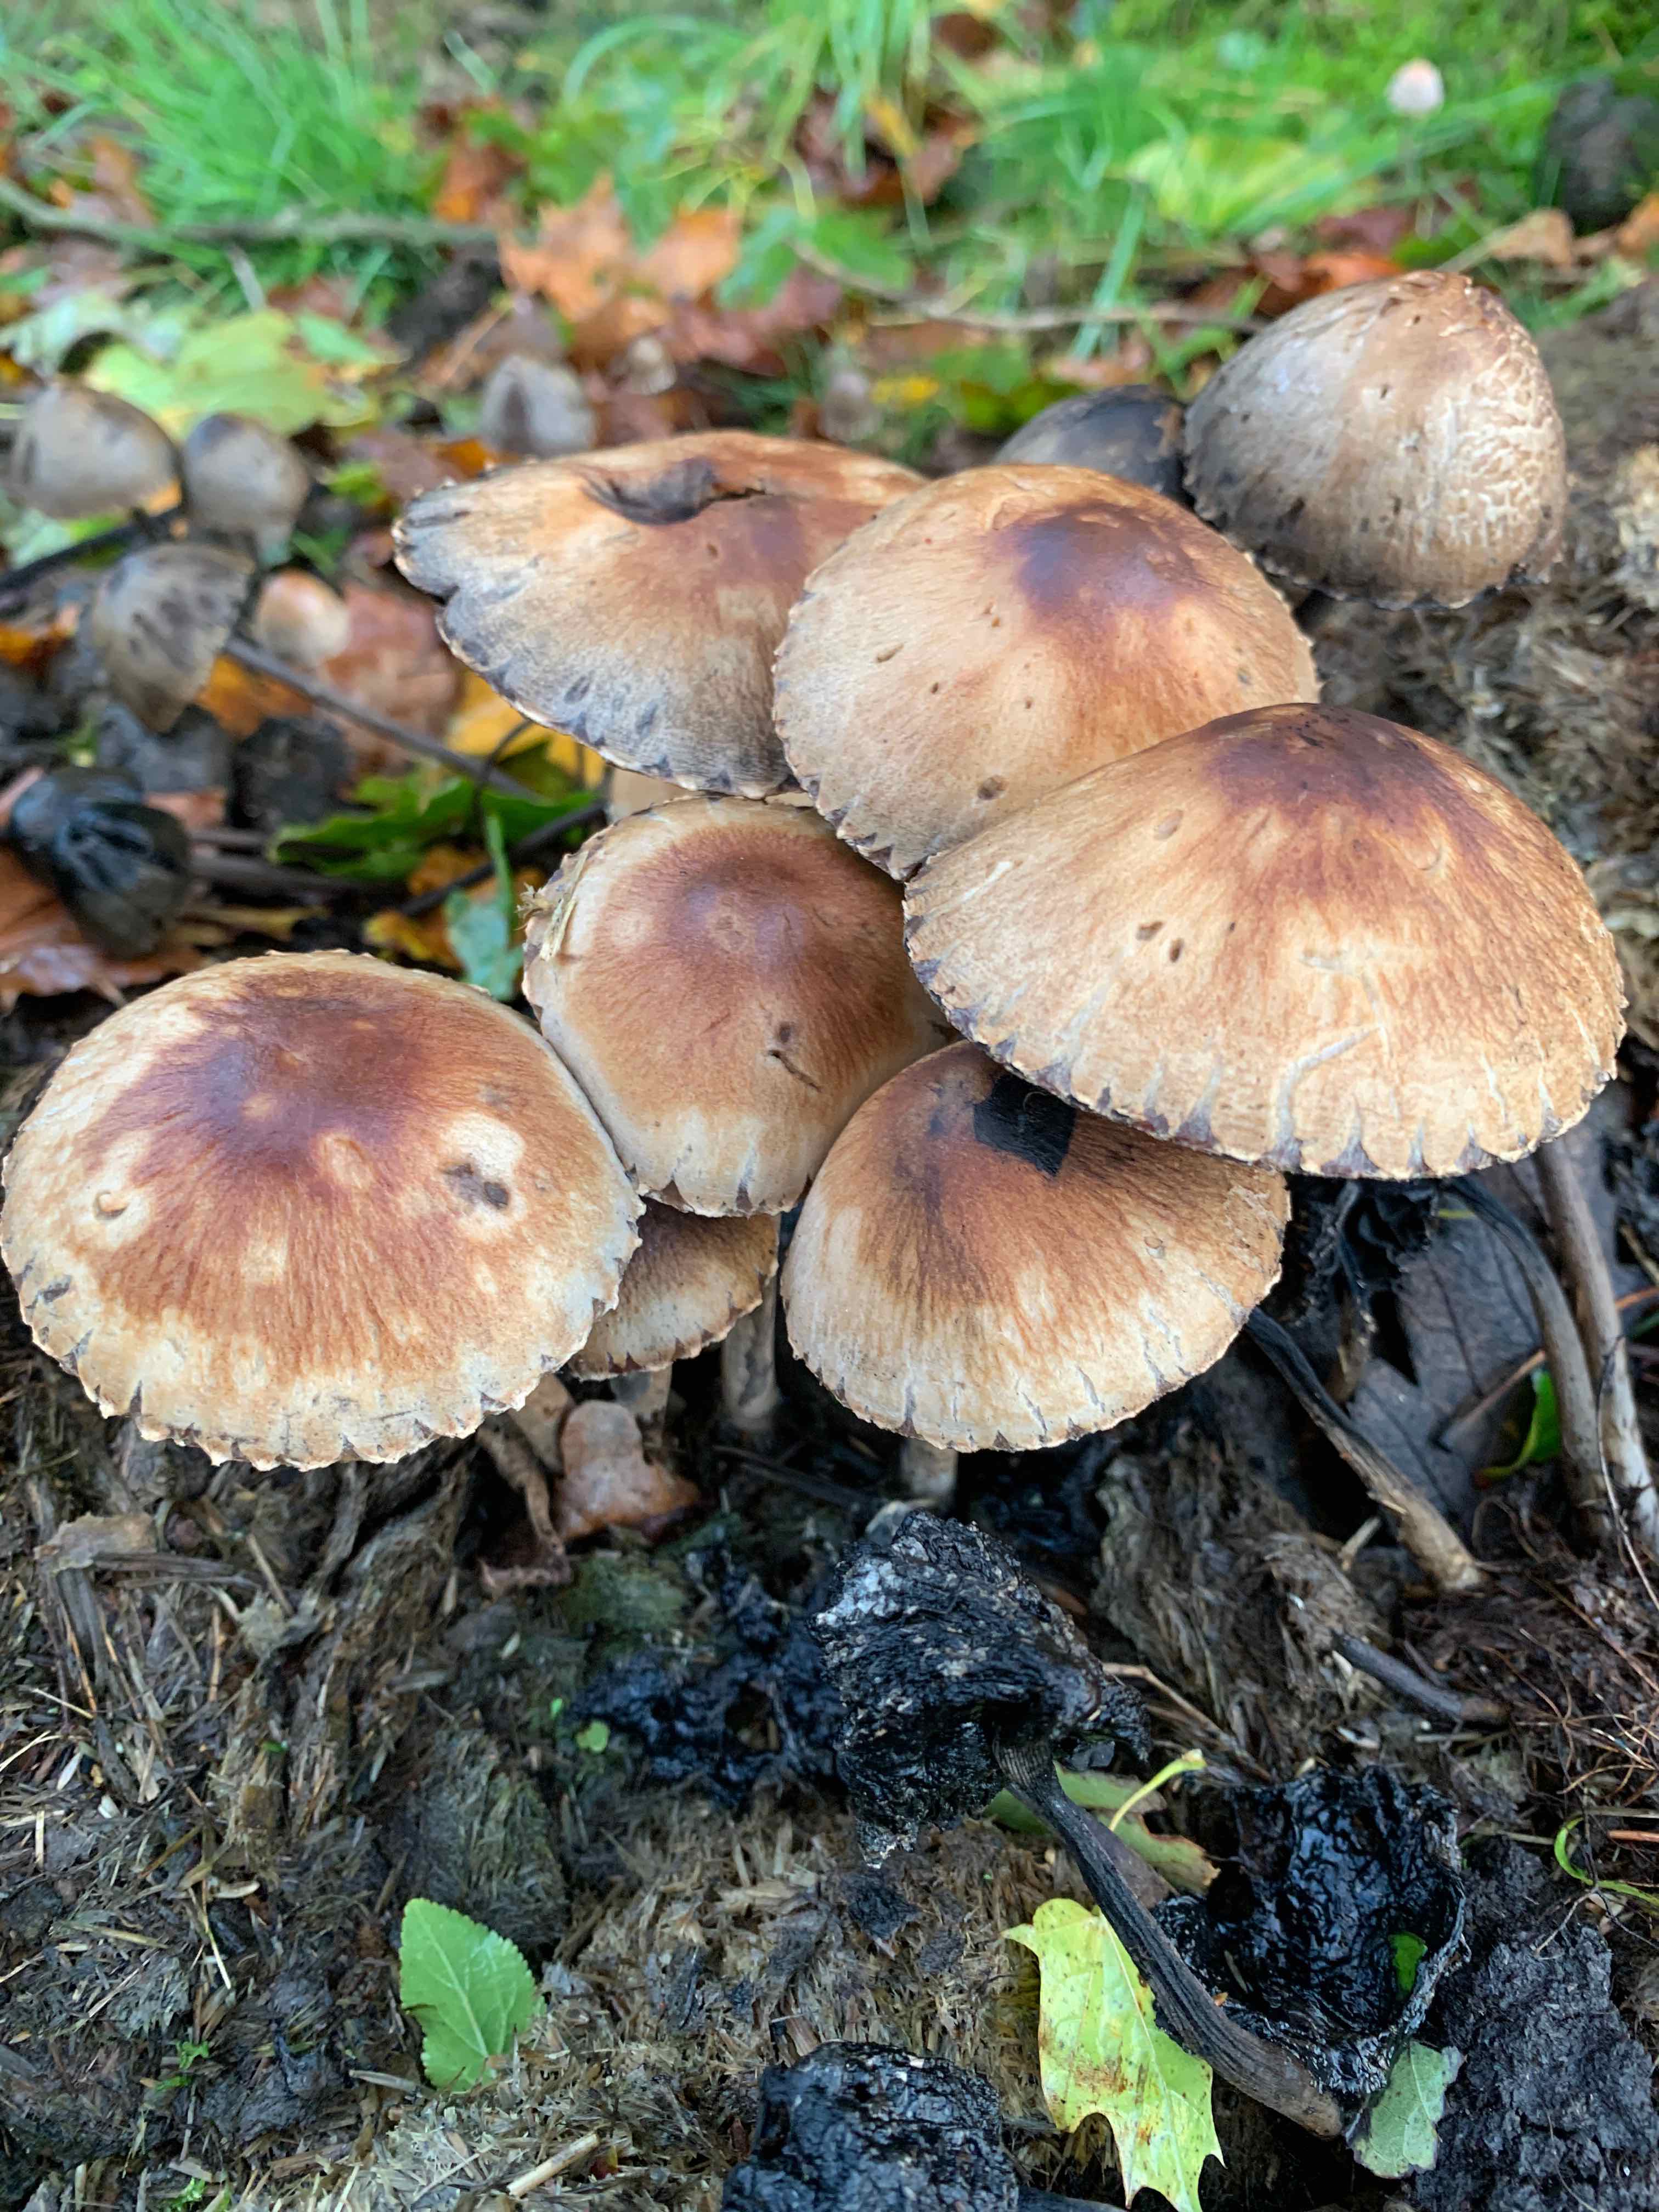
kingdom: Fungi
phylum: Basidiomycota
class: Agaricomycetes
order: Agaricales
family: Psathyrellaceae
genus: Lacrymaria
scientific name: Lacrymaria lacrymabunda
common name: grædende mørkhat
